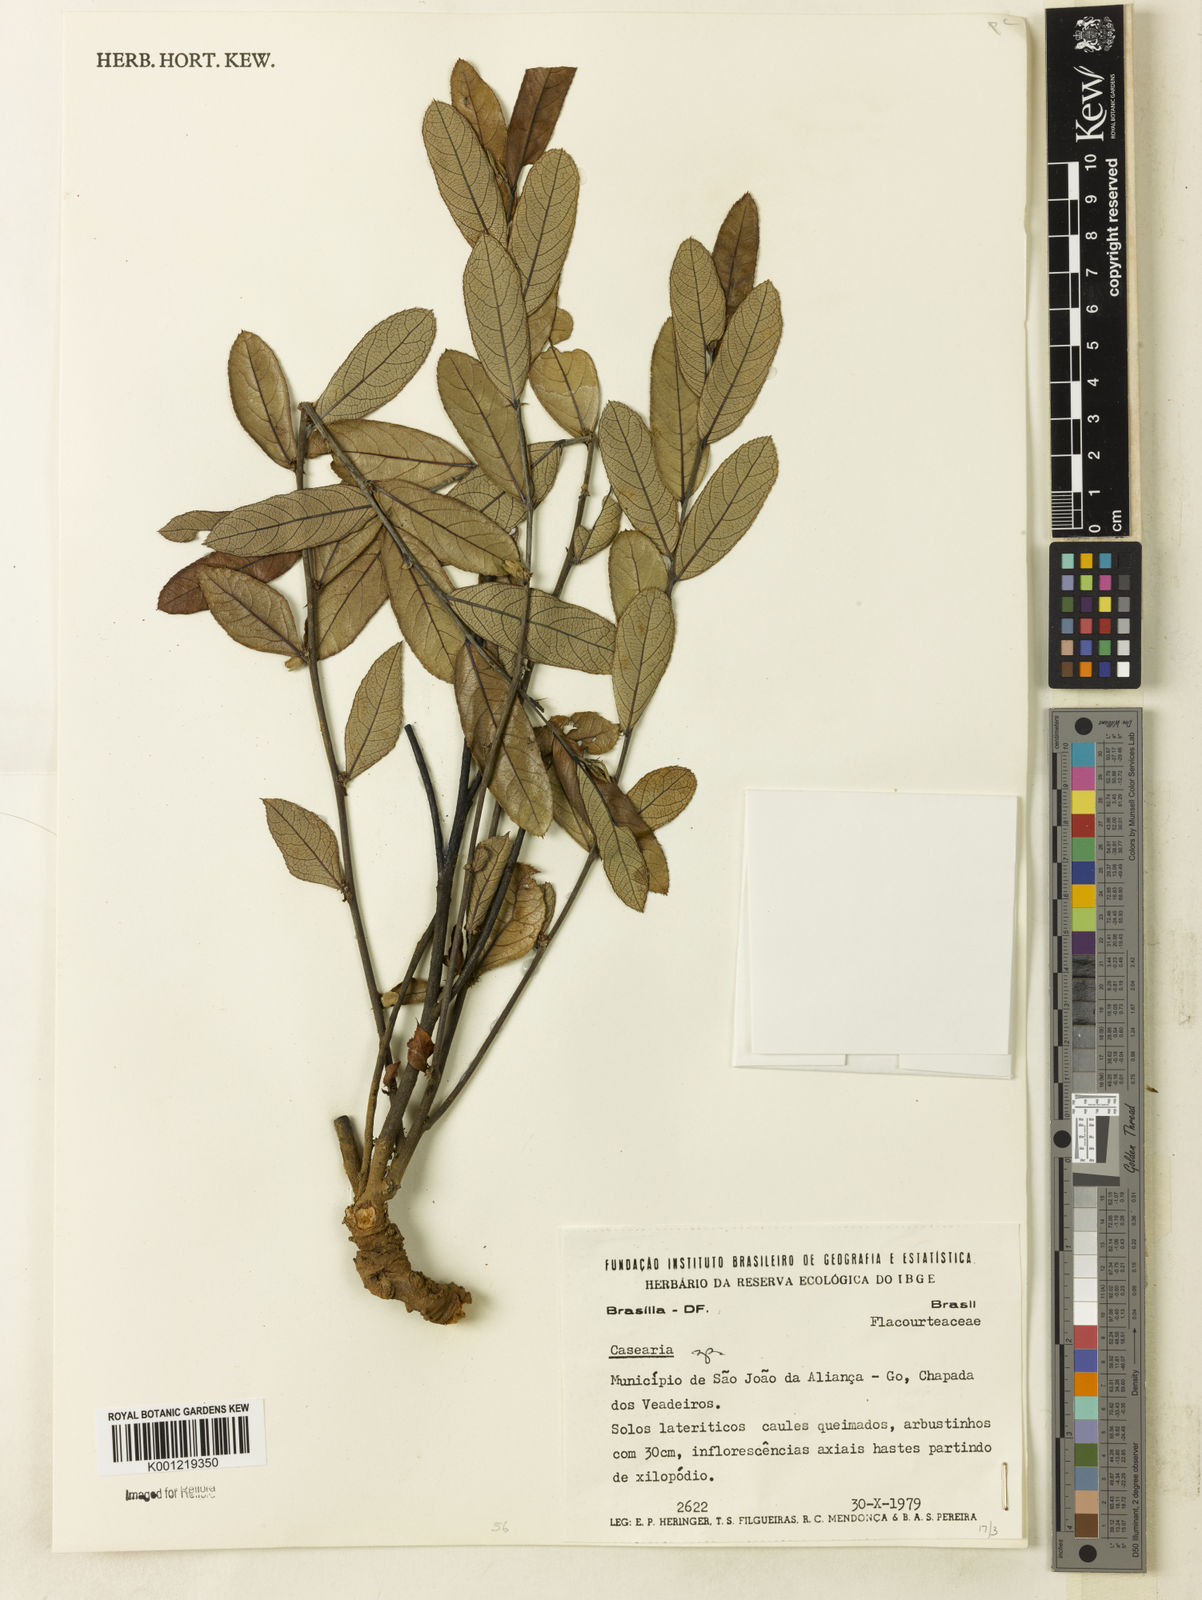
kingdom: Plantae
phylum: Tracheophyta
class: Magnoliopsida
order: Malpighiales
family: Salicaceae
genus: Casearia
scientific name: Casearia
